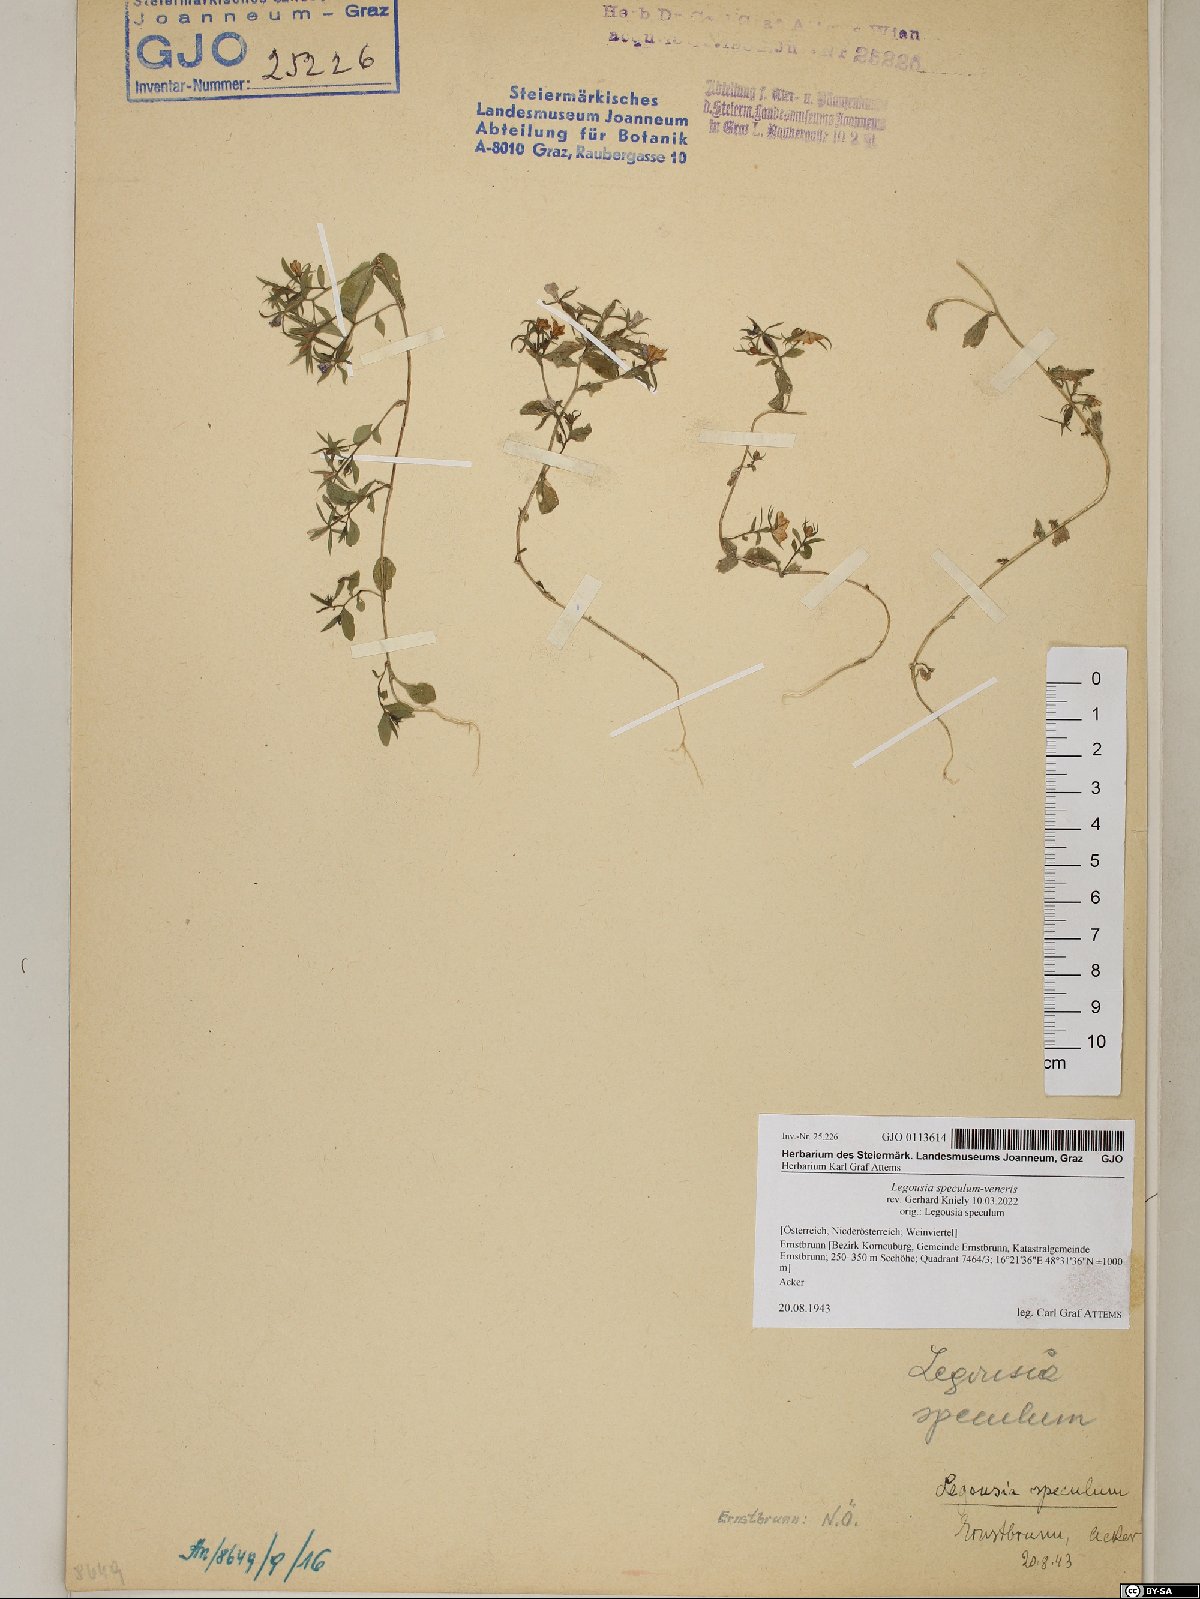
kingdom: Plantae
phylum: Tracheophyta
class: Magnoliopsida
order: Asterales
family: Campanulaceae
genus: Legousia
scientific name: Legousia speculum-veneris
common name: Large venus's-looking-glass
